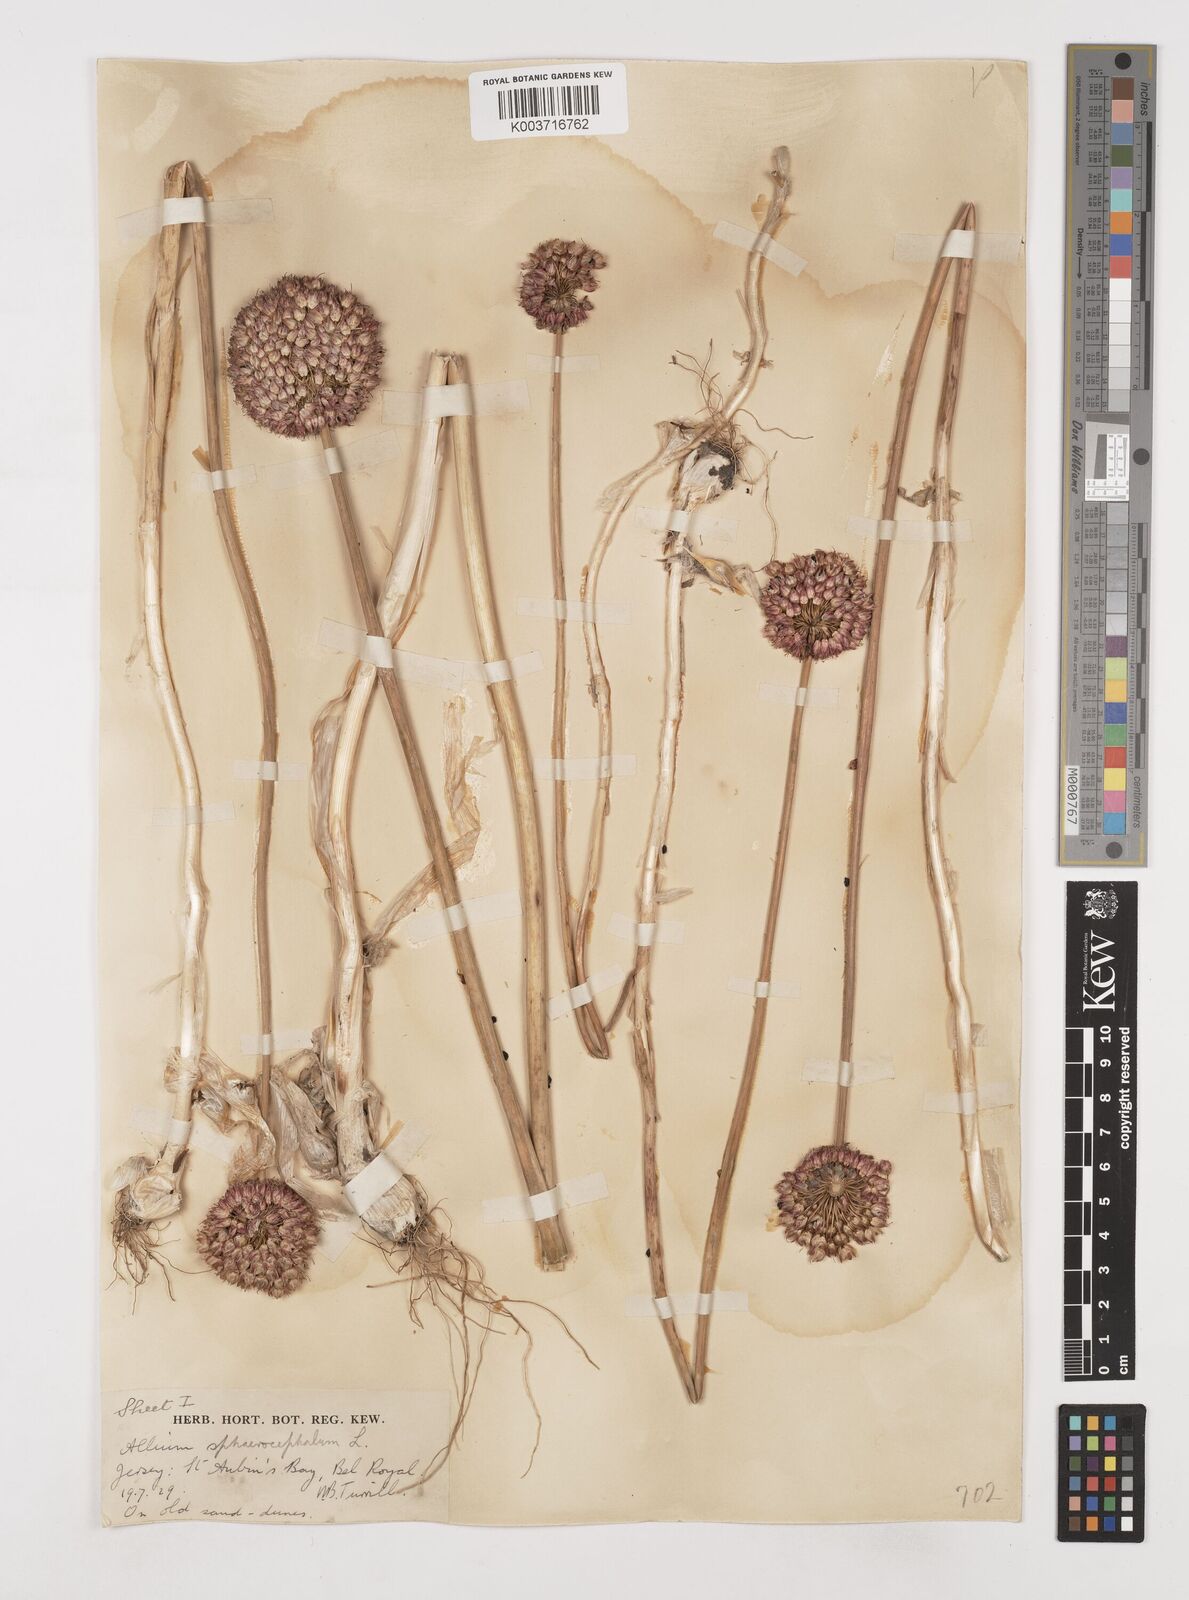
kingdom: Plantae
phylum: Tracheophyta
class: Liliopsida
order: Asparagales
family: Amaryllidaceae
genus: Allium
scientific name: Allium sphaerocephalon
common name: Round-headed leek
